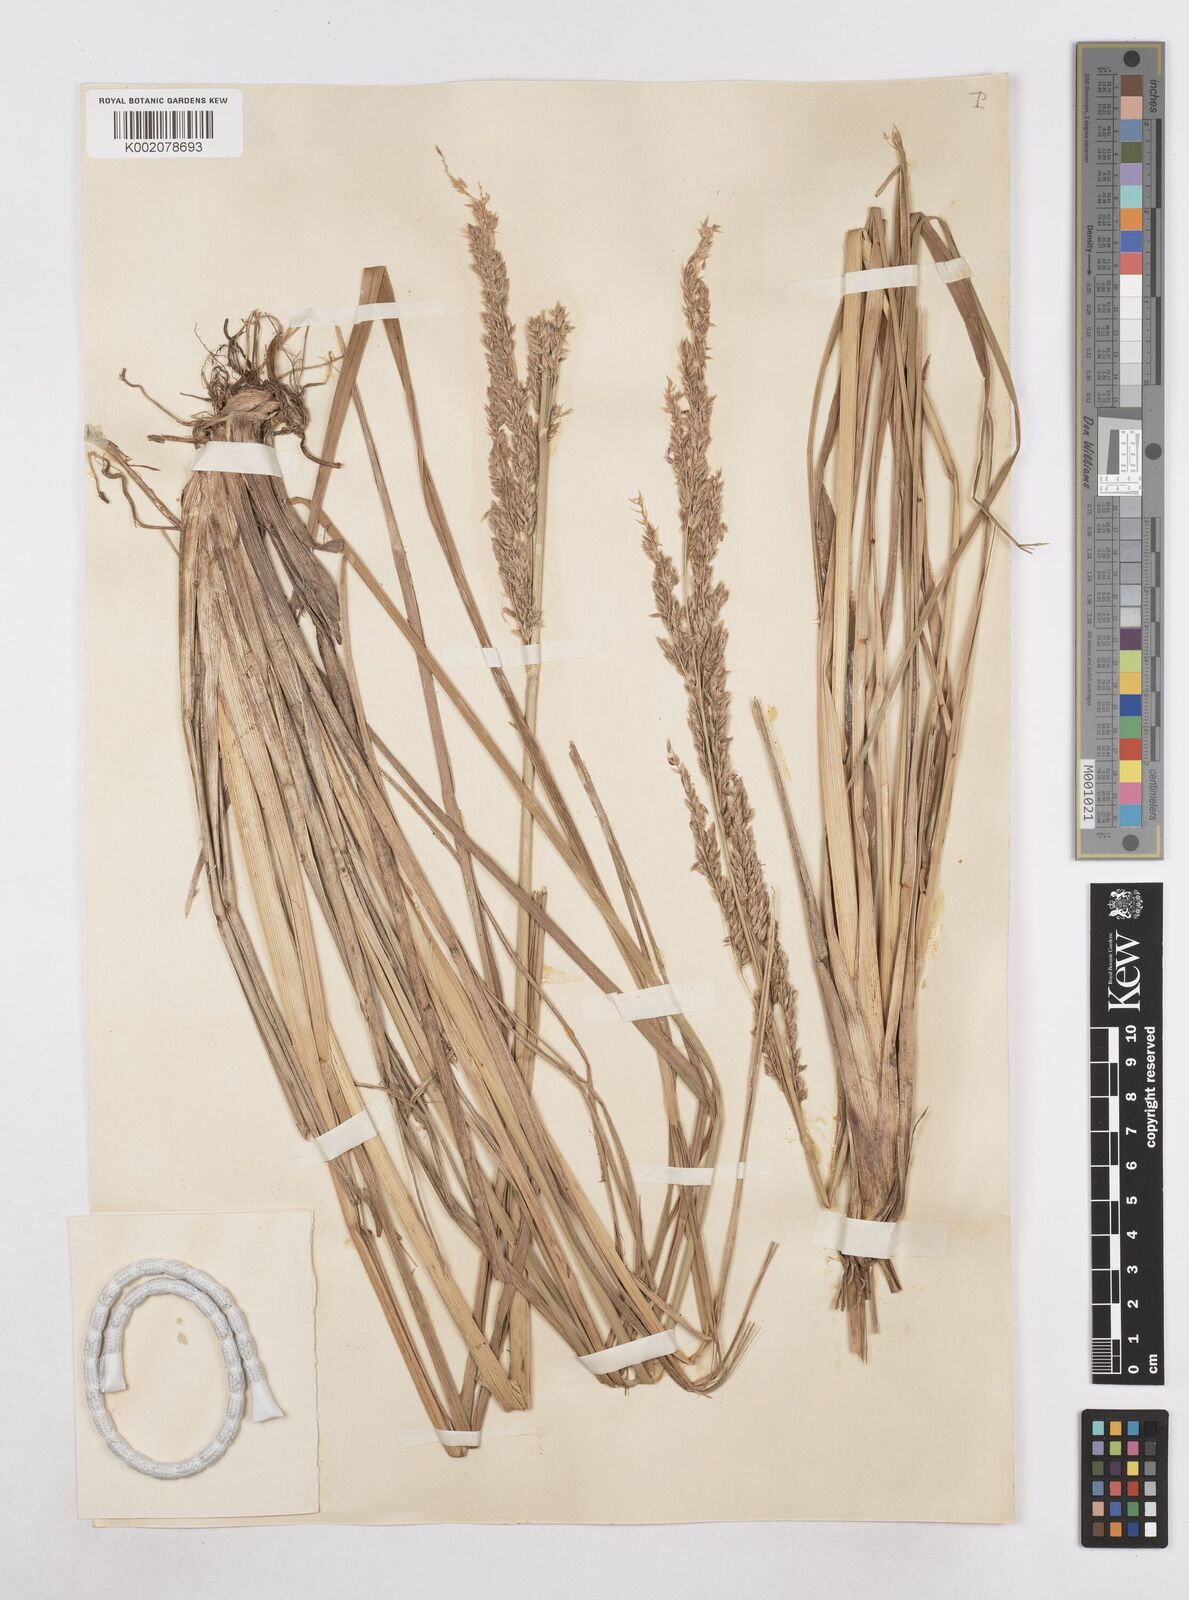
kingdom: Plantae
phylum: Tracheophyta
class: Liliopsida
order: Poales
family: Poaceae
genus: Poa
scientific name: Poa stuckertii
